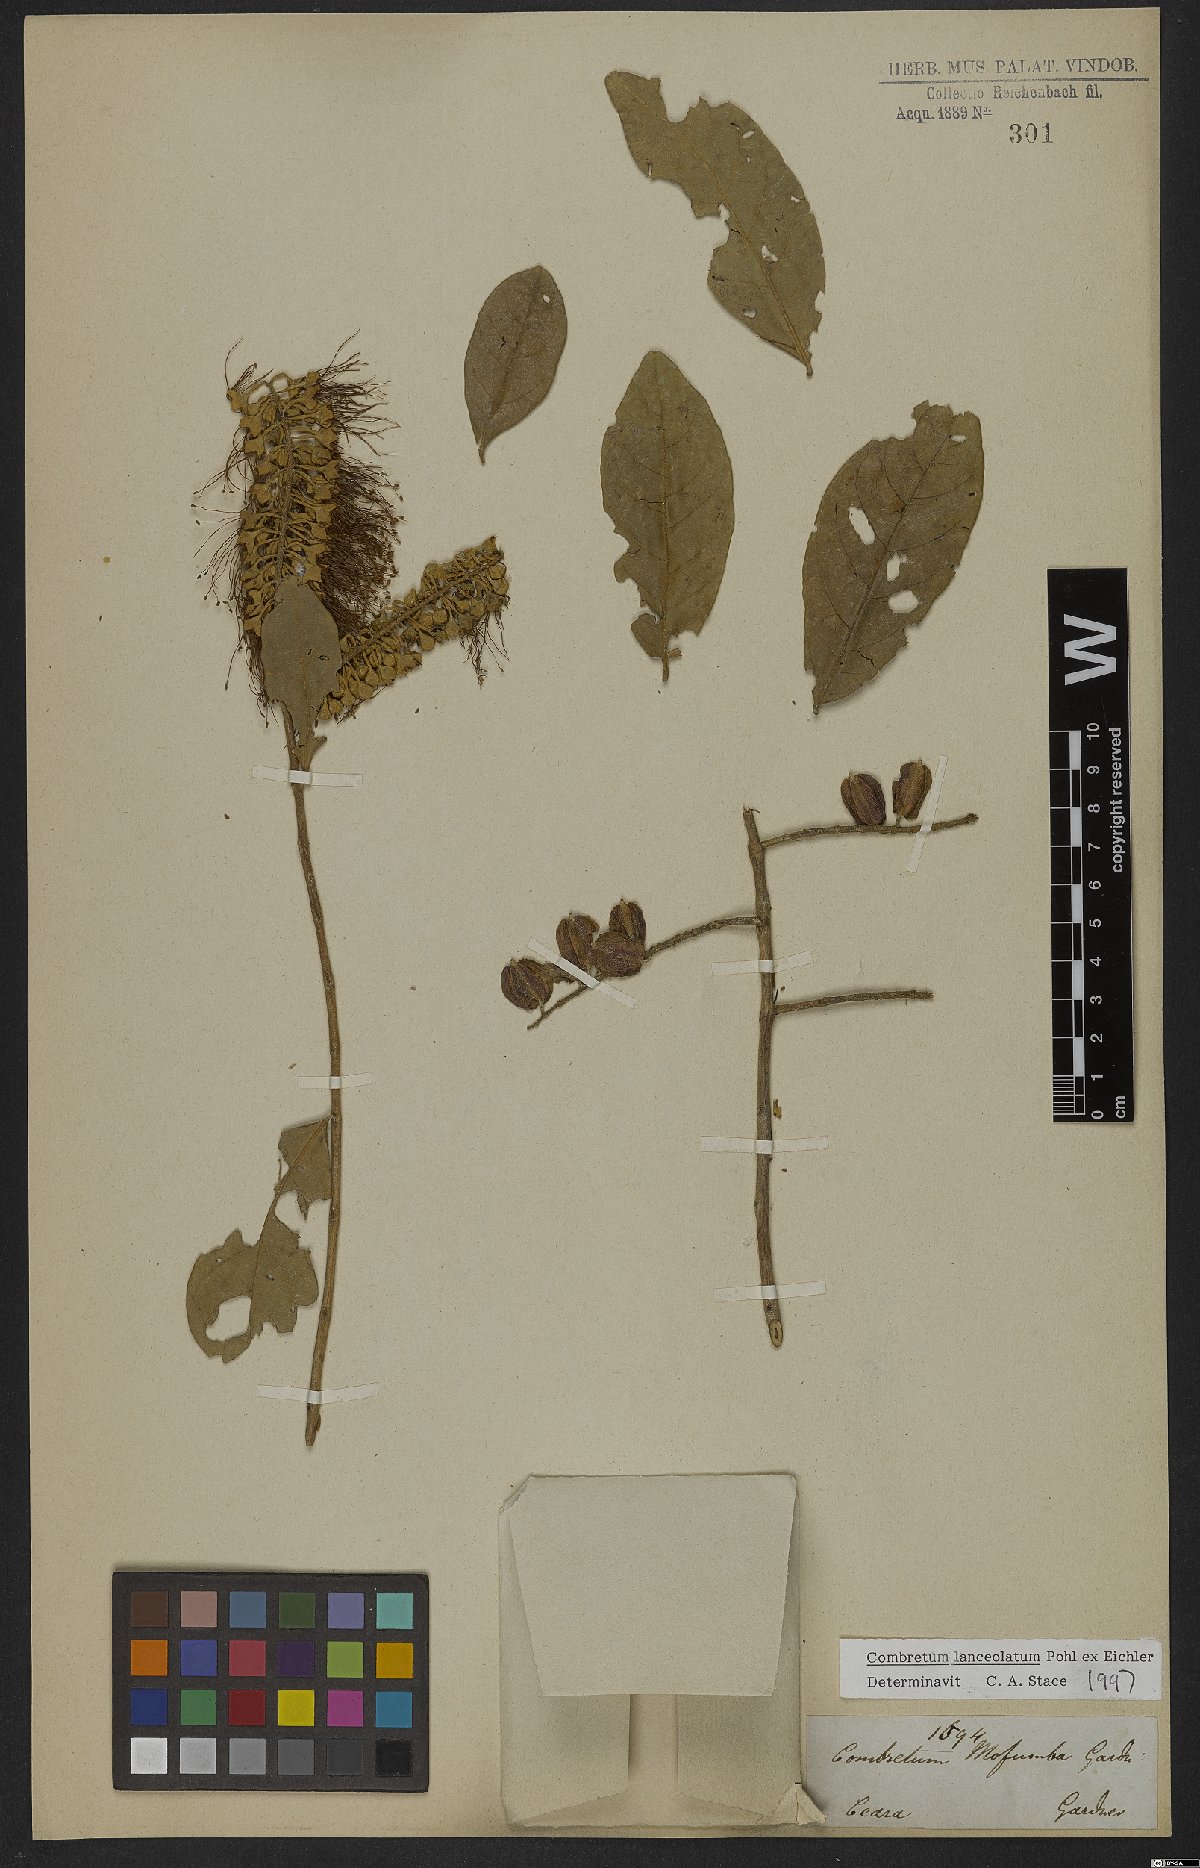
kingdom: Plantae
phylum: Tracheophyta
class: Magnoliopsida
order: Myrtales
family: Combretaceae
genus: Combretum
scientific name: Combretum lanceolatum
